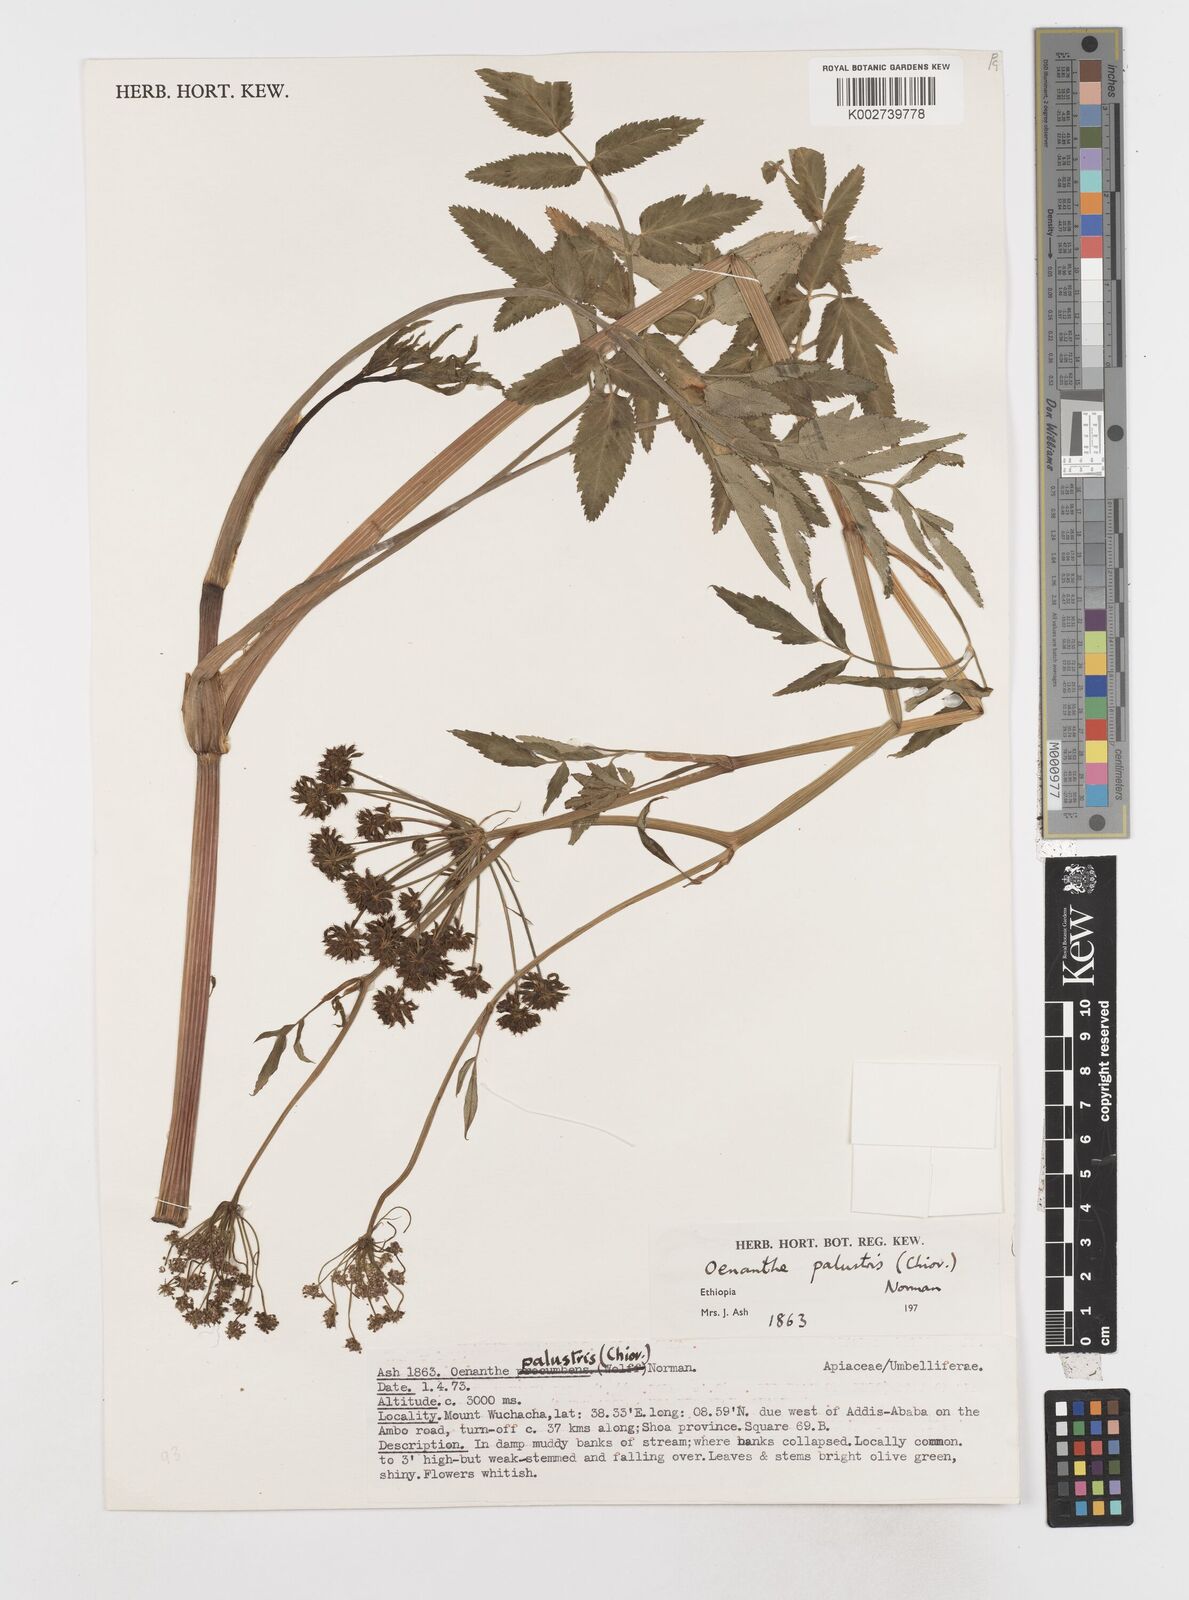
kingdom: Plantae
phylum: Tracheophyta
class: Magnoliopsida
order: Apiales
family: Apiaceae
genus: Oenanthe
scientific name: Oenanthe palustris
